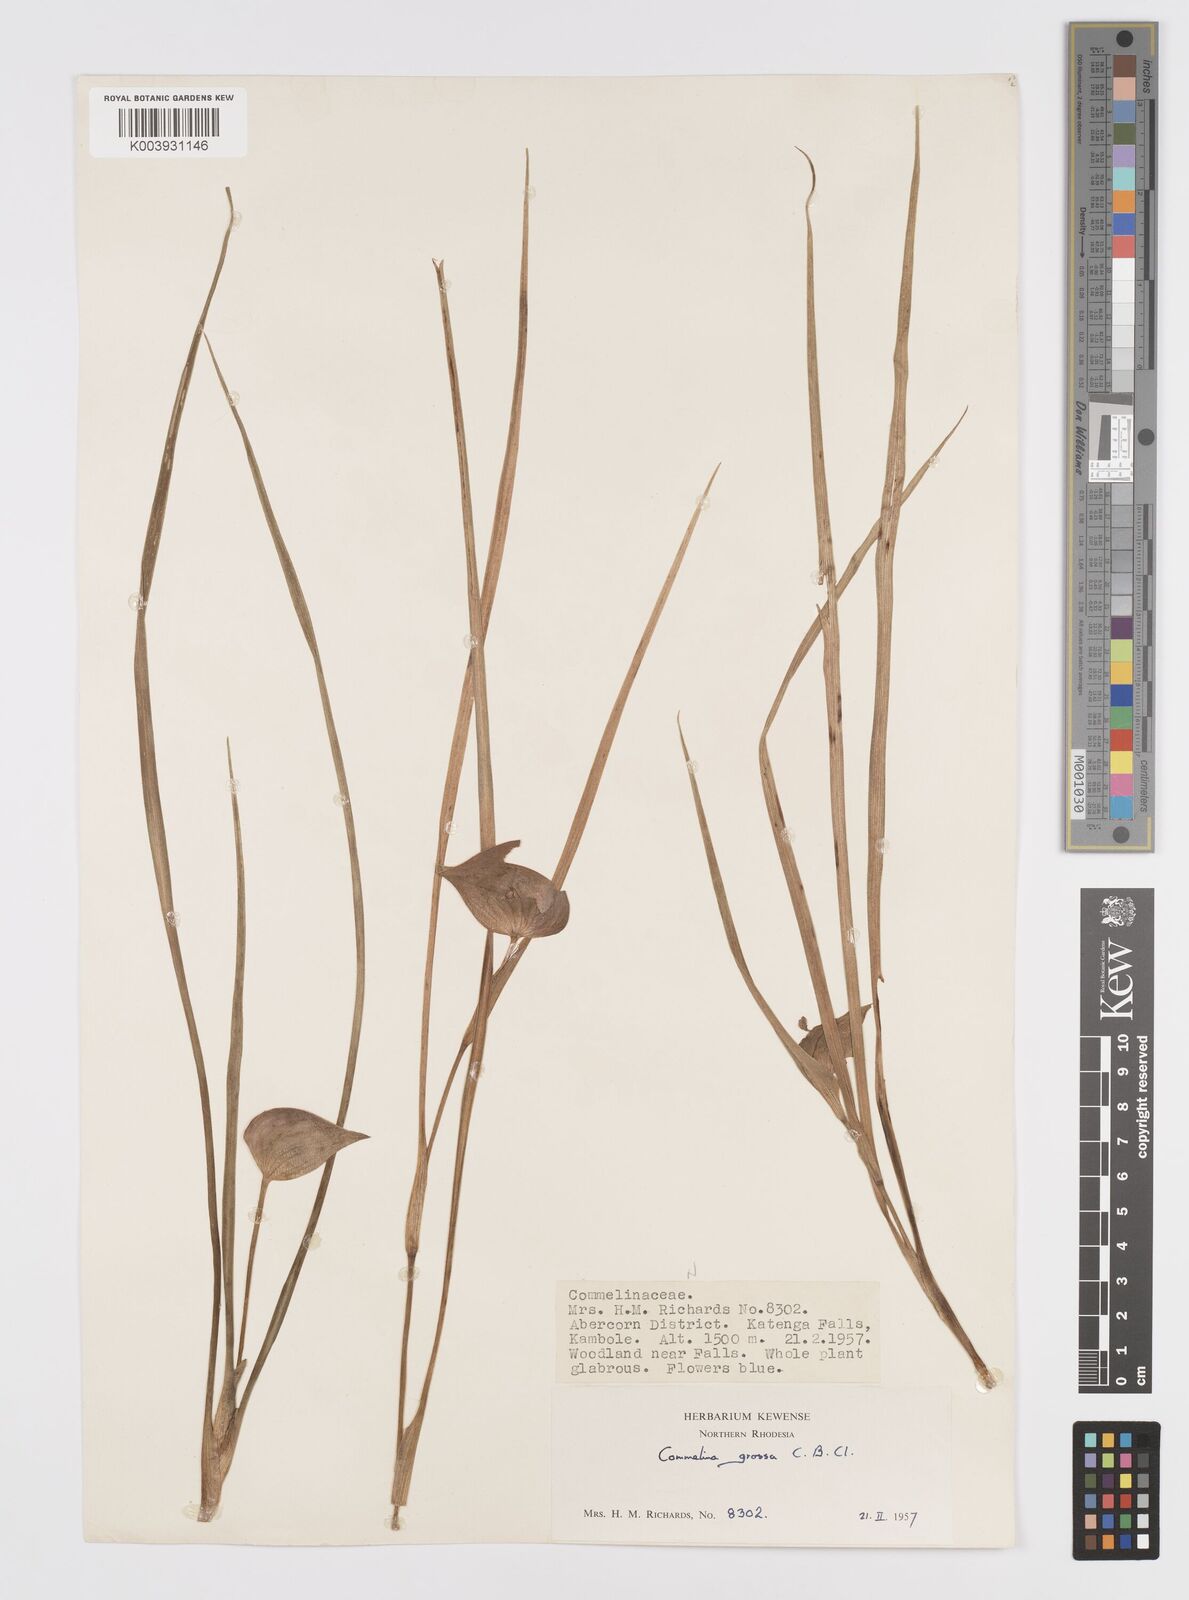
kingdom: Plantae
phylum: Tracheophyta
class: Liliopsida
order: Commelinales
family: Commelinaceae
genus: Commelina
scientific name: Commelina grossa
